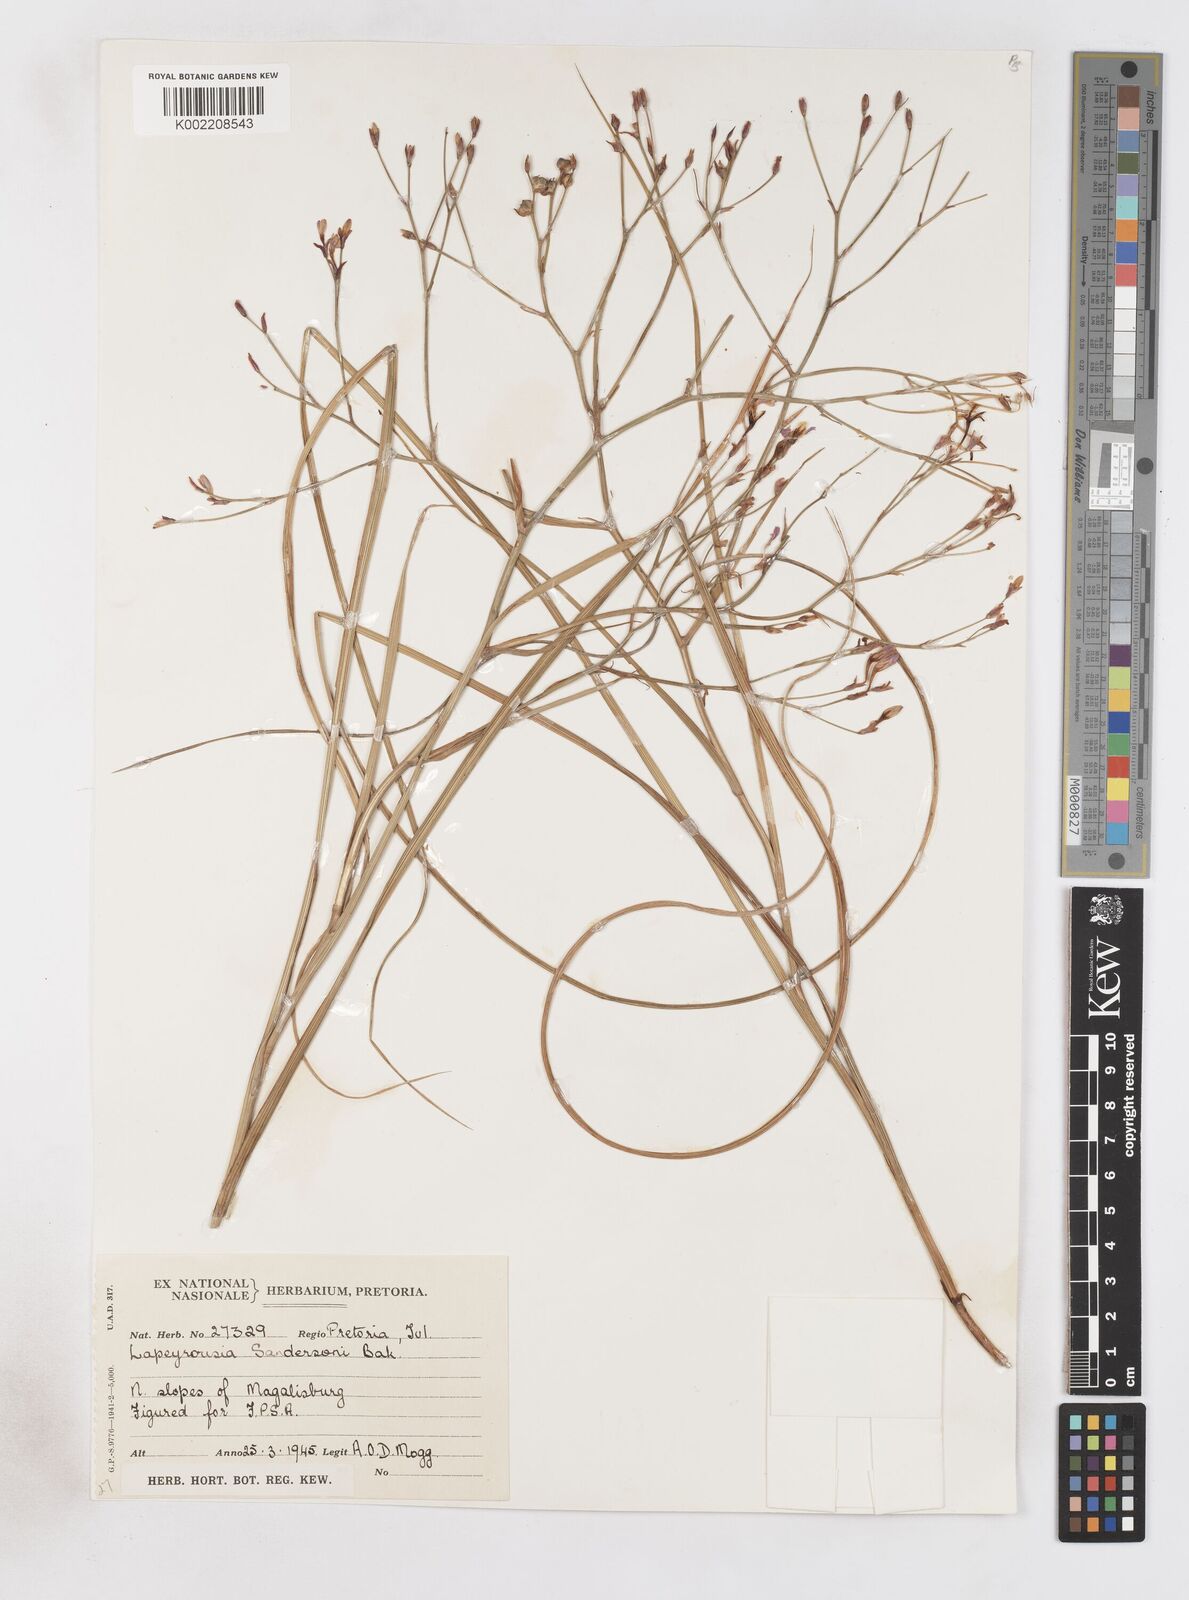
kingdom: Plantae
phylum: Tracheophyta
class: Liliopsida
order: Asparagales
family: Iridaceae
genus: Afrosolen
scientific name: Afrosolen sandersonii
